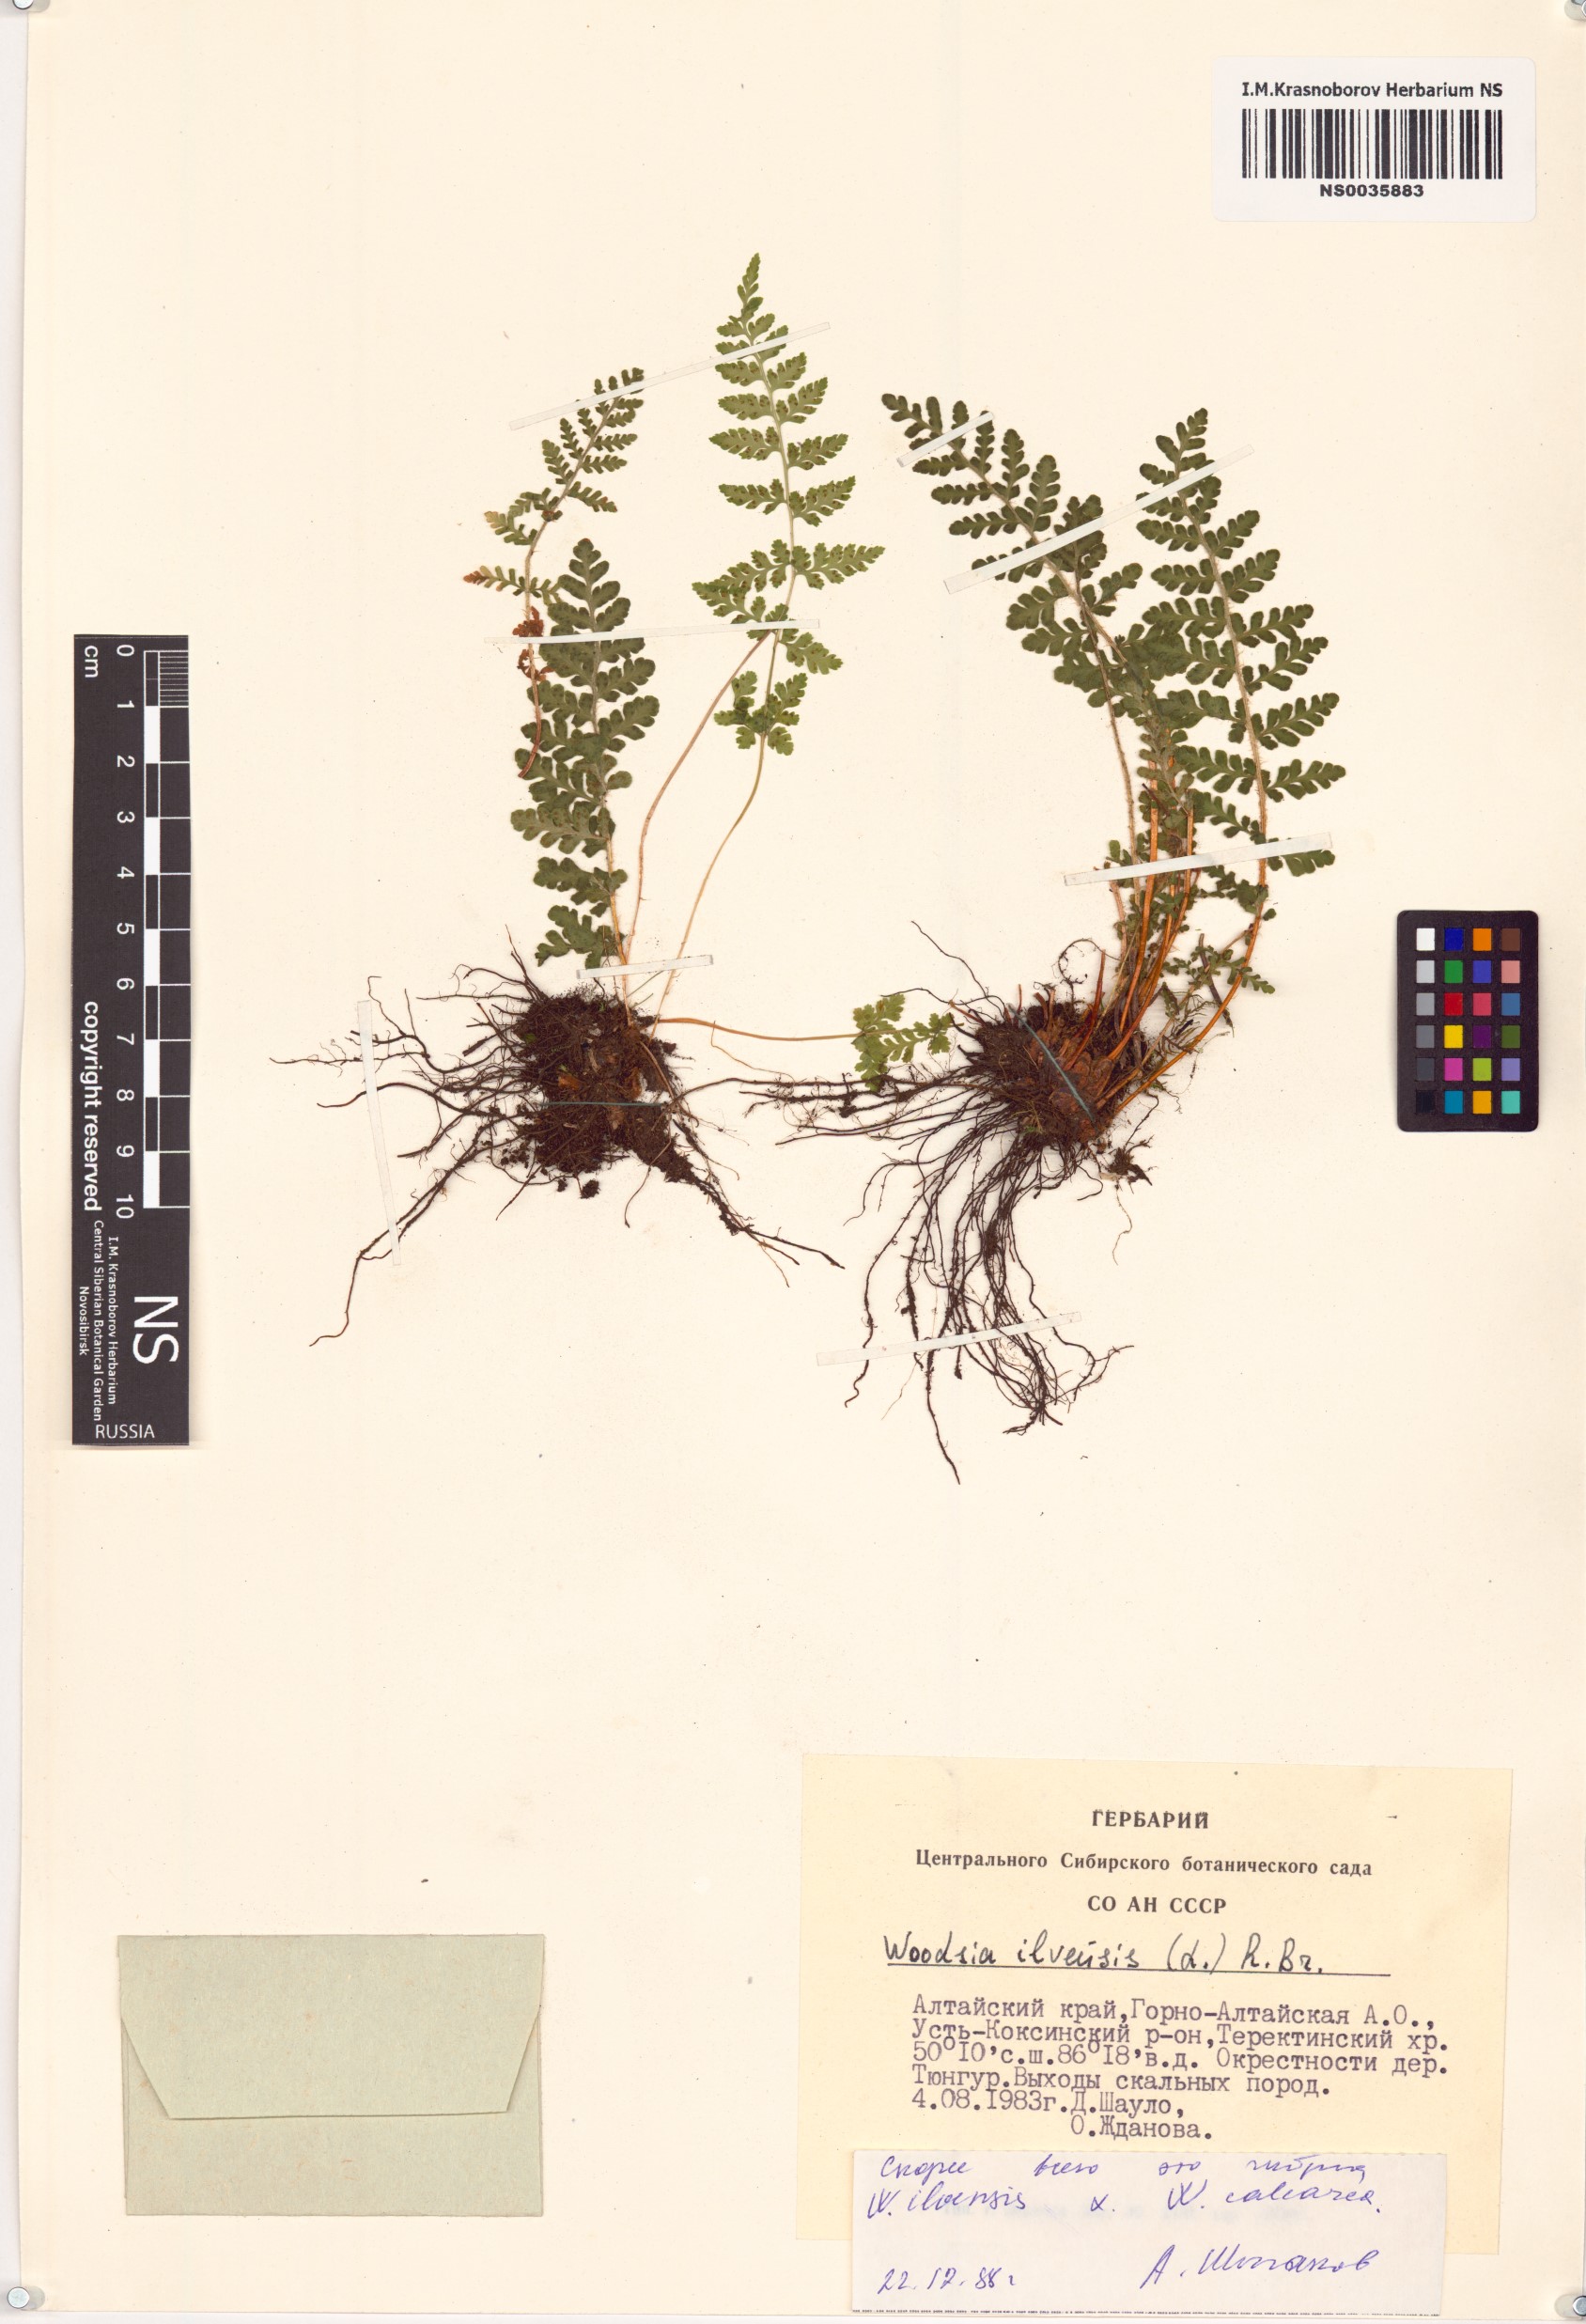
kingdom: Plantae
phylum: Tracheophyta
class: Polypodiopsida
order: Polypodiales
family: Woodsiaceae
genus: Woodsia
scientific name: Woodsia ilvensis
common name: Fragrant woodsia
